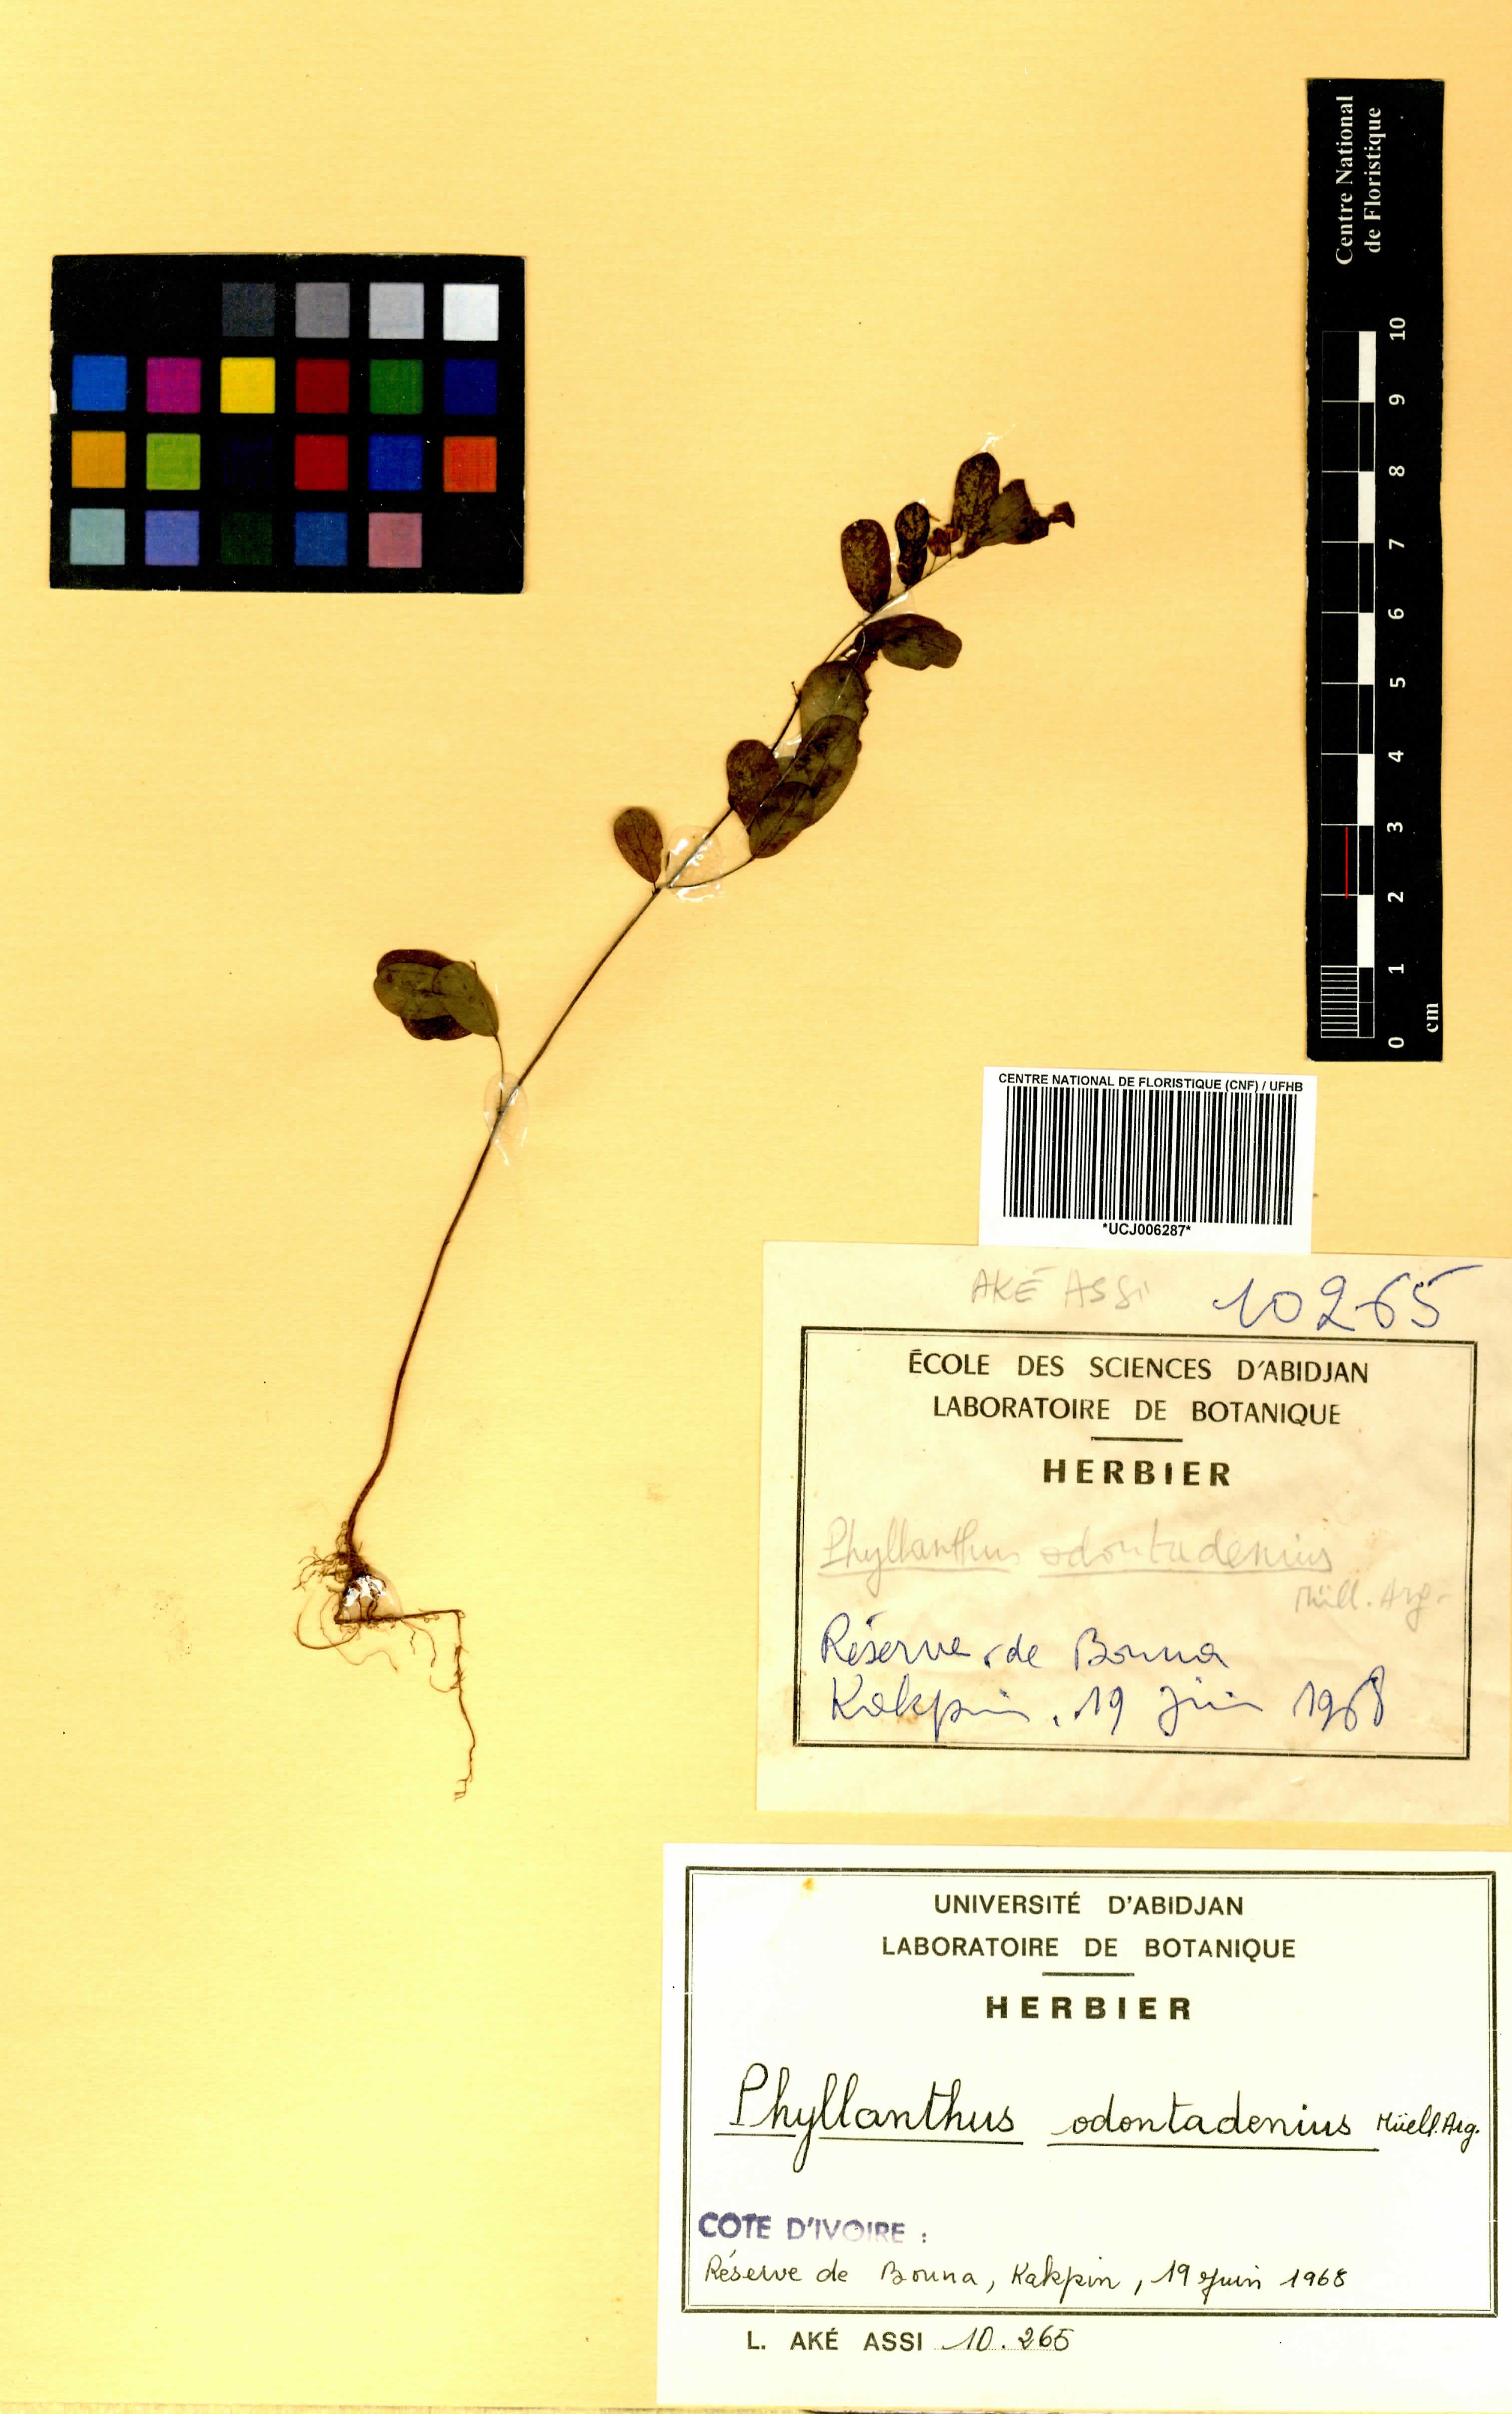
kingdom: Plantae
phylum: Tracheophyta
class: Magnoliopsida
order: Malpighiales
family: Phyllanthaceae
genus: Phyllanthus
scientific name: Phyllanthus odontadenius
